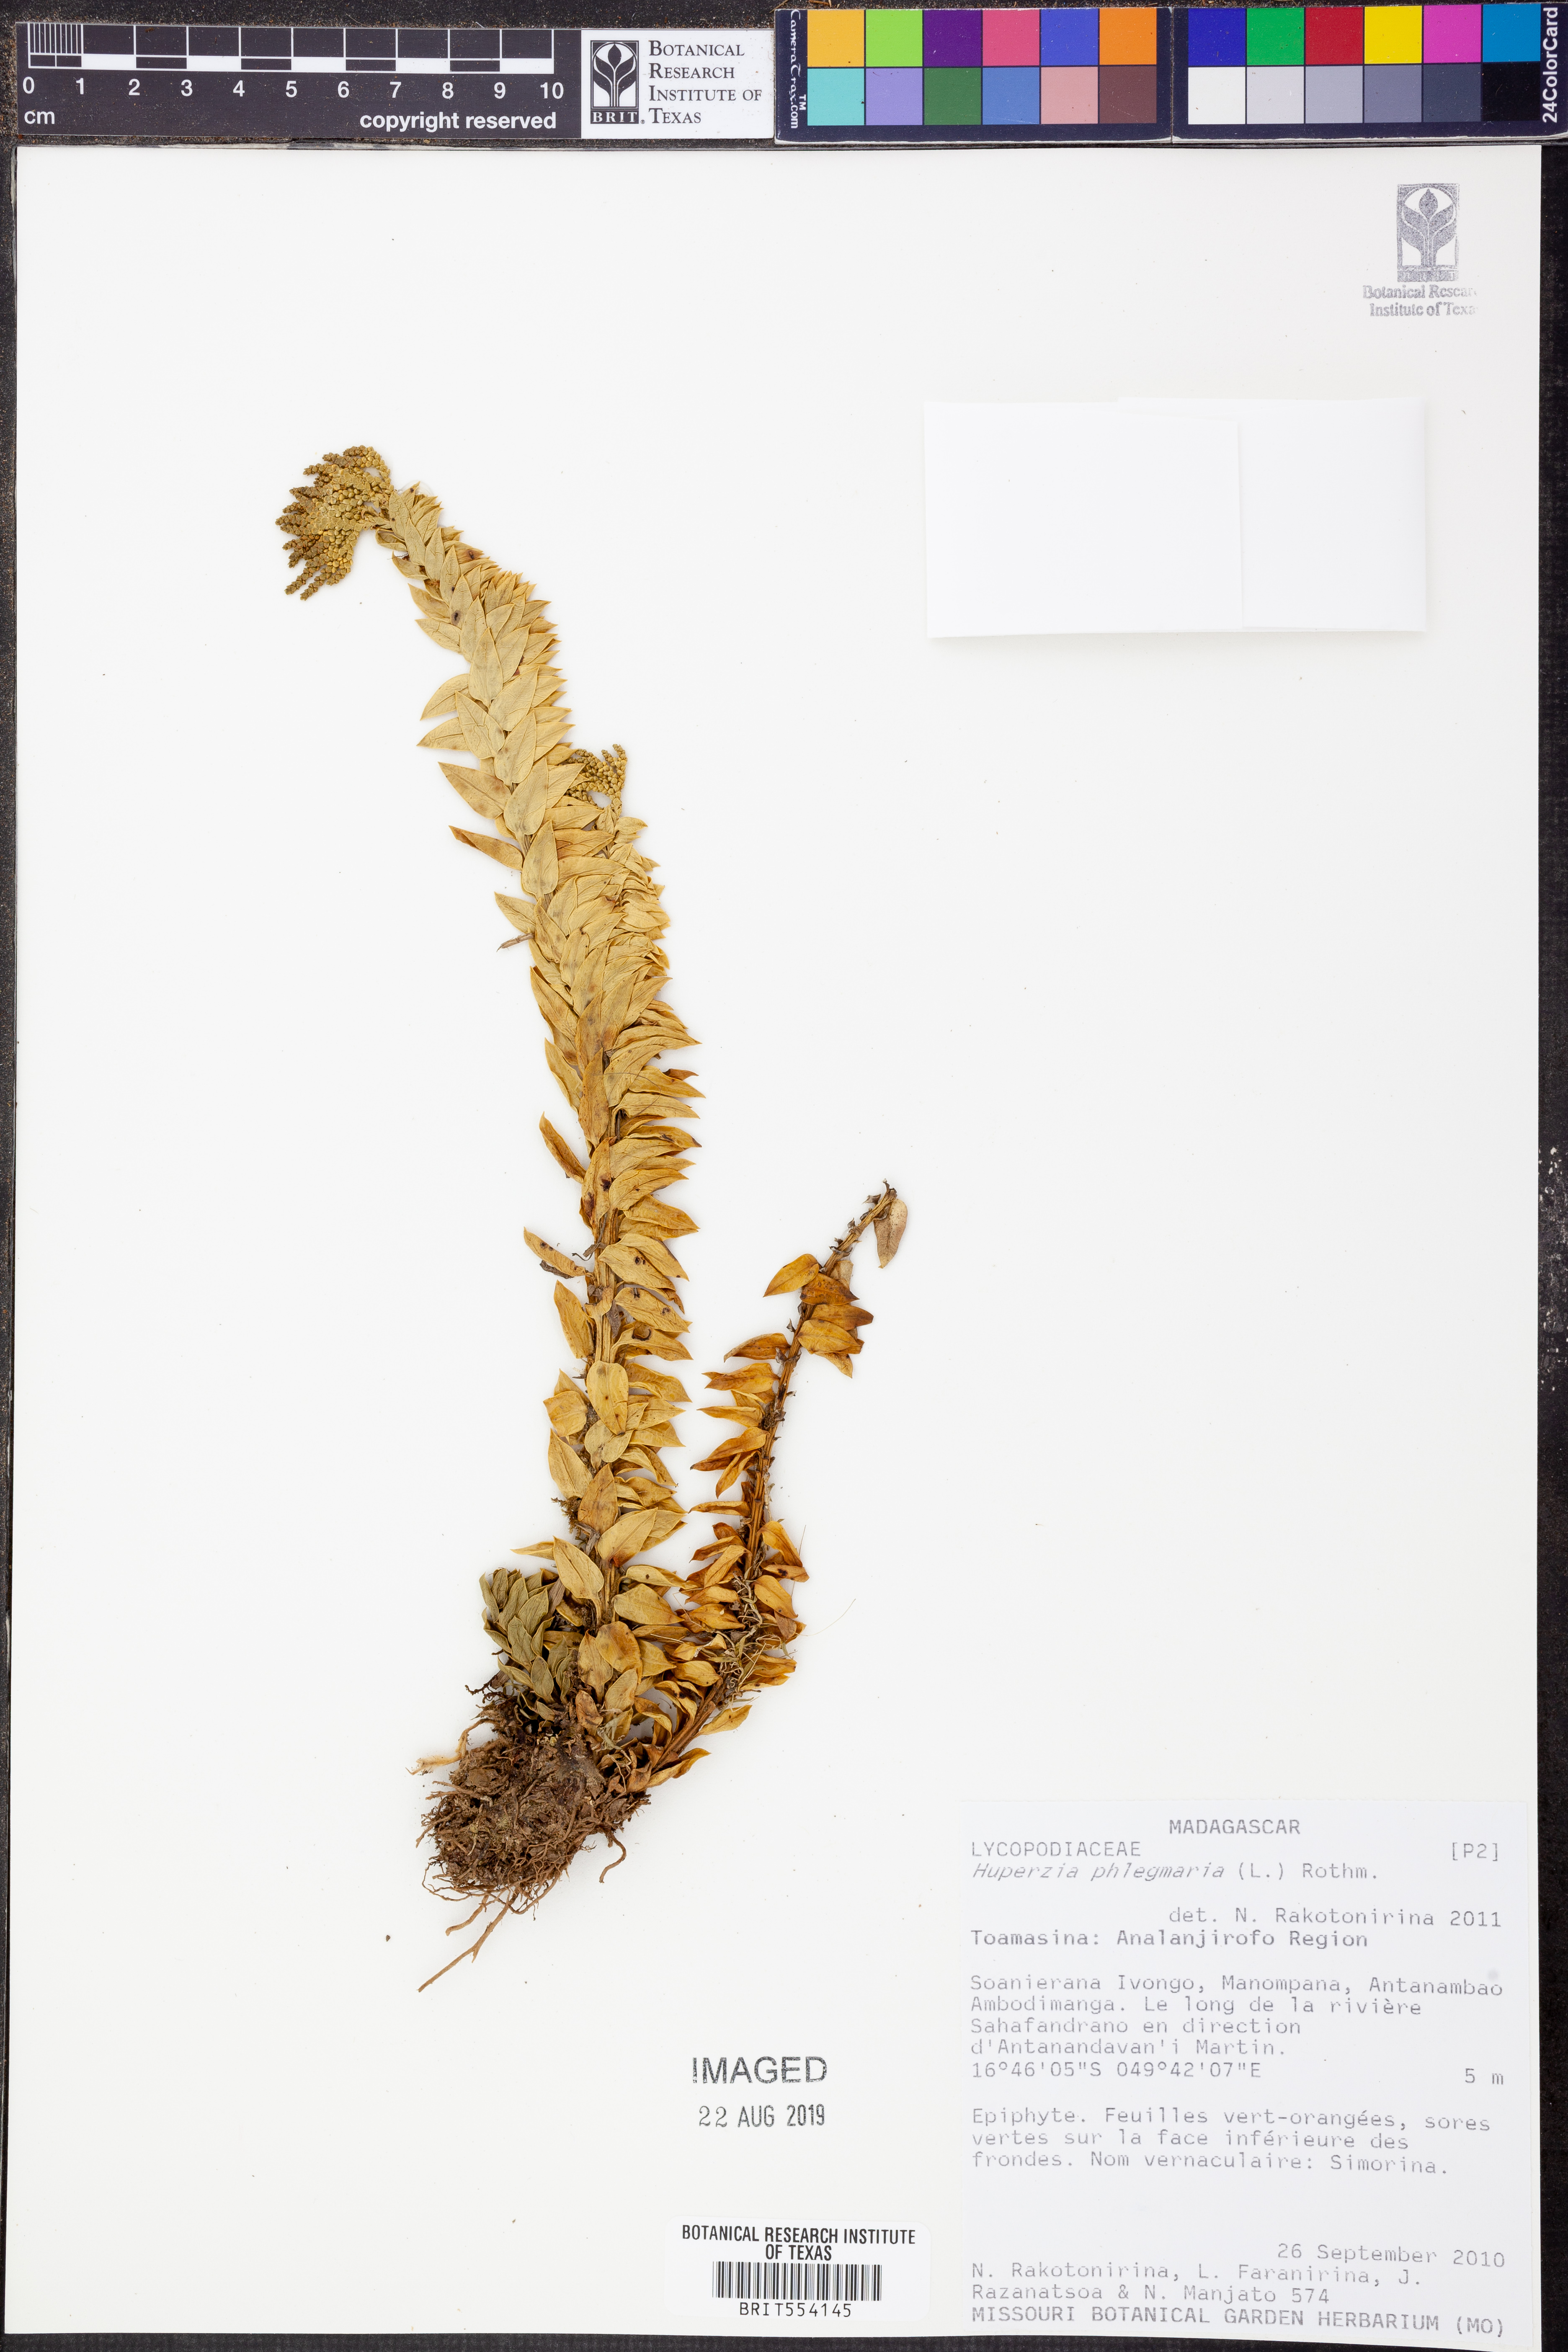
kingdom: Plantae
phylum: Tracheophyta
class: Lycopodiopsida
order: Lycopodiales
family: Lycopodiaceae
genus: Phlegmariurus
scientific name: Phlegmariurus phlegmaria
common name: Coarse tassel-fern
